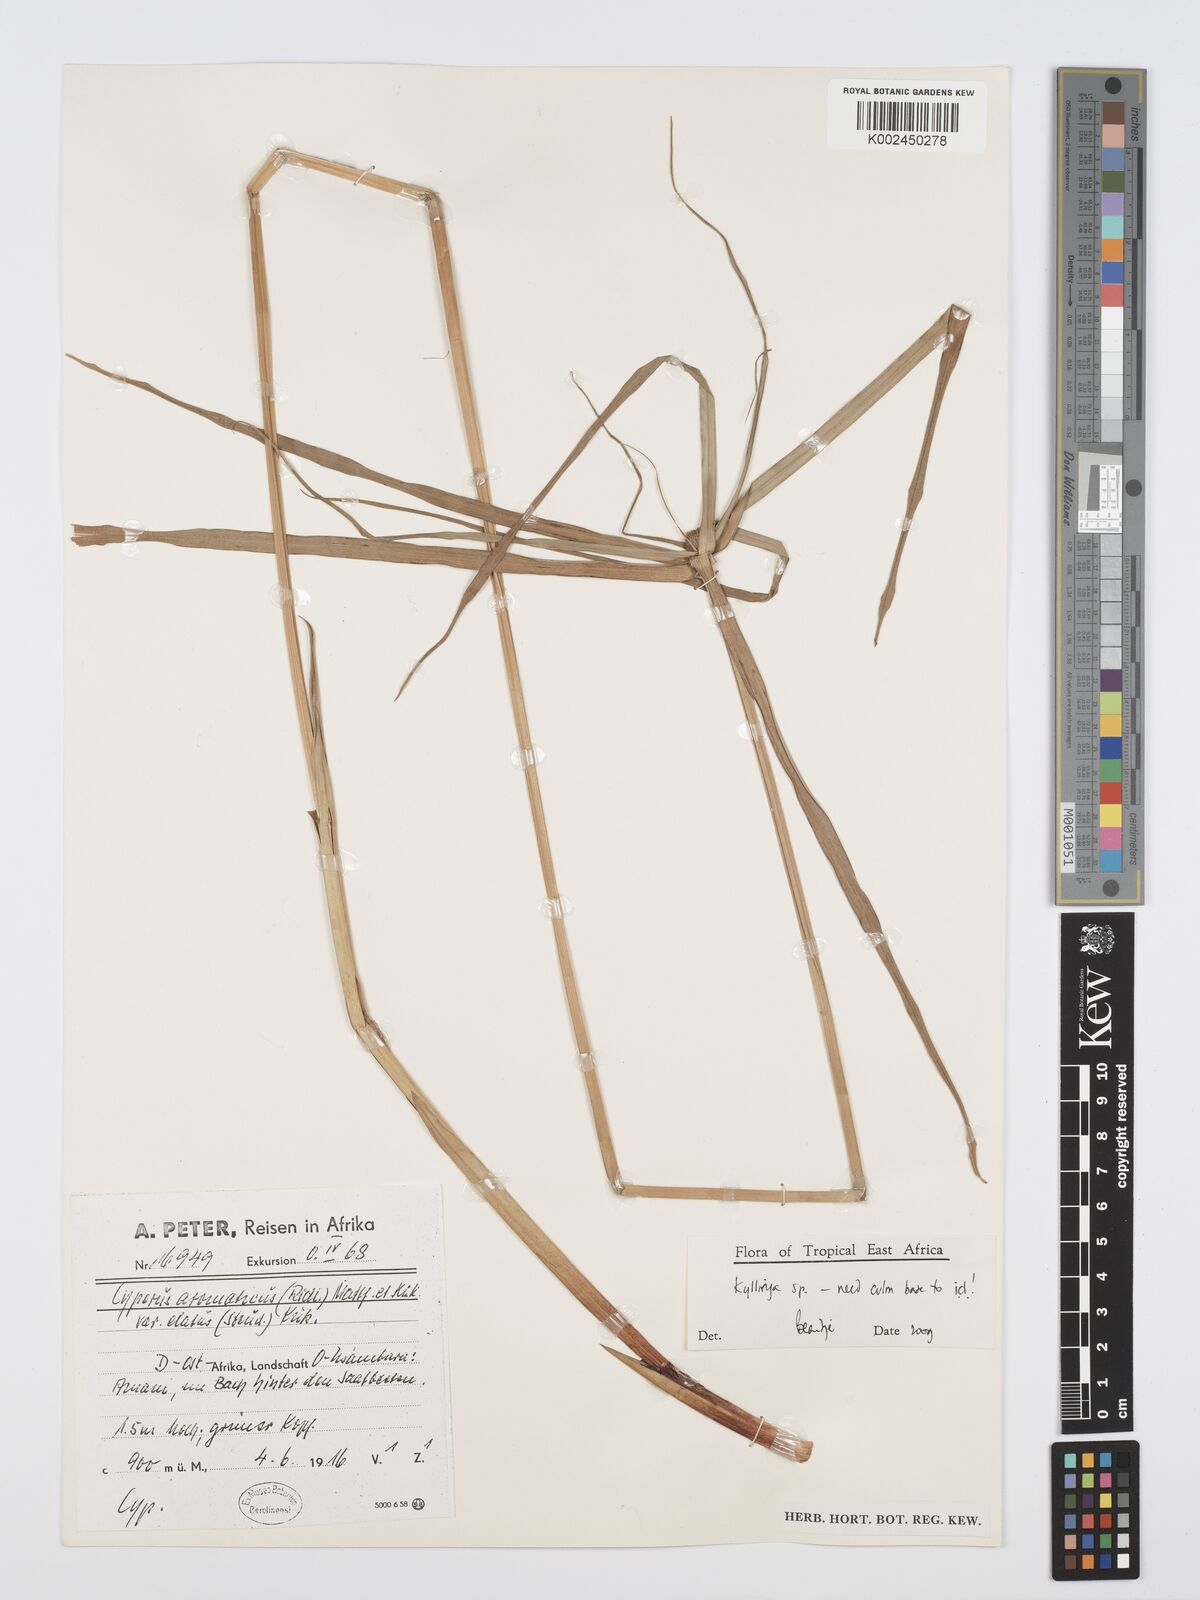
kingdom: Plantae
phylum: Tracheophyta
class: Liliopsida
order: Poales
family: Cyperaceae
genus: Cyperus
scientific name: Cyperus
